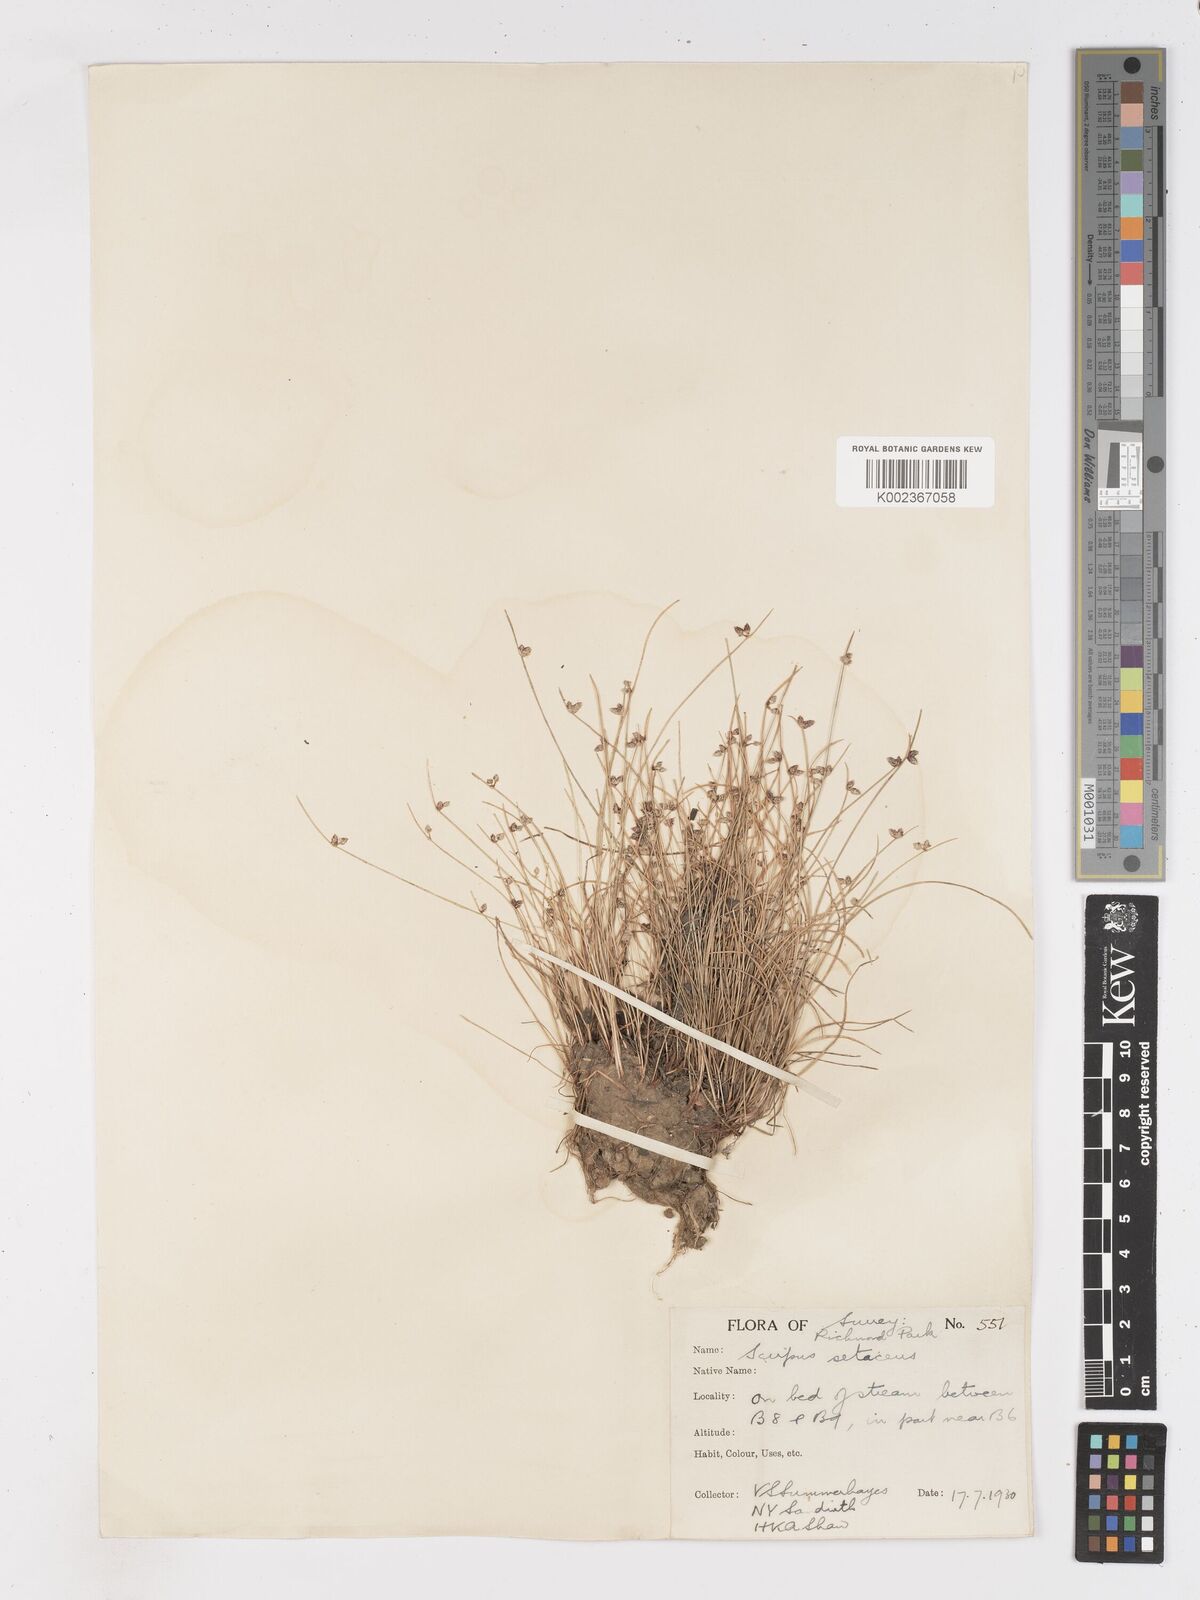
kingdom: Plantae
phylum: Tracheophyta
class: Liliopsida
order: Poales
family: Cyperaceae
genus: Isolepis
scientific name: Isolepis setacea
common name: Bristle club-rush
